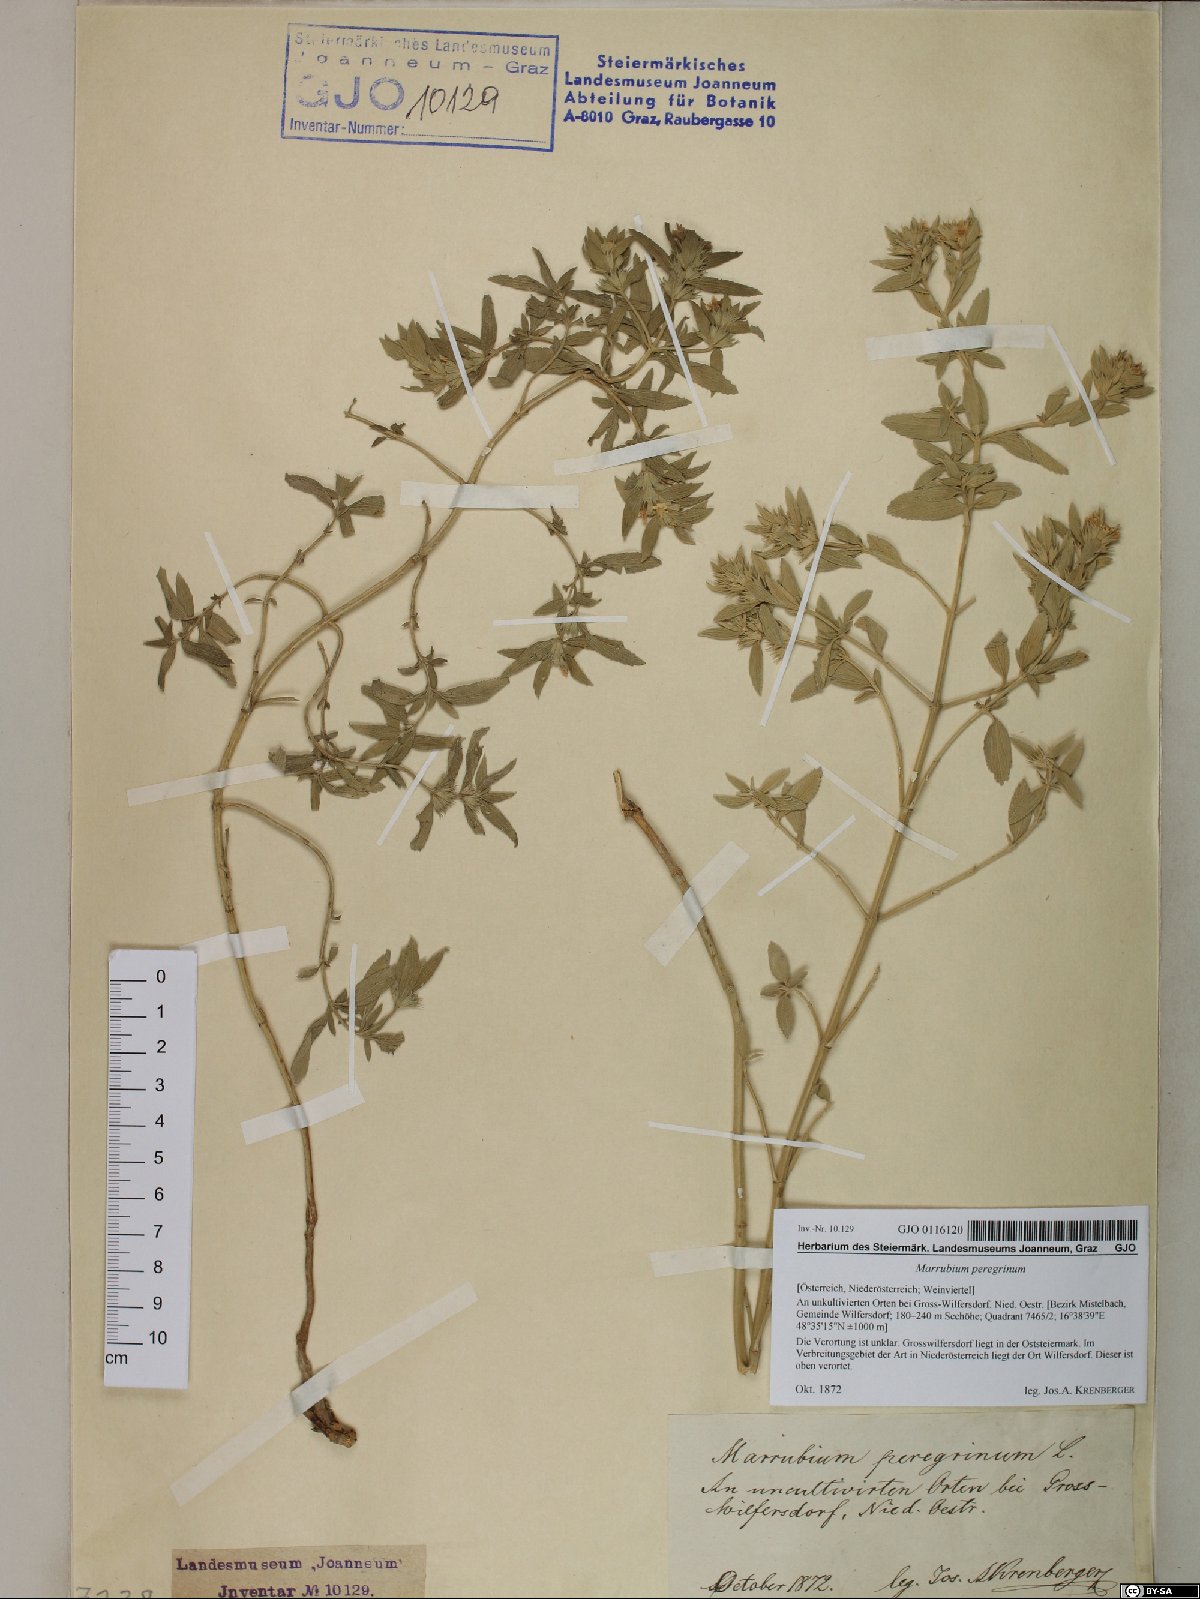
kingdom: Plantae
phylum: Tracheophyta
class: Magnoliopsida
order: Lamiales
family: Lamiaceae
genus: Marrubium
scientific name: Marrubium peregrinum
